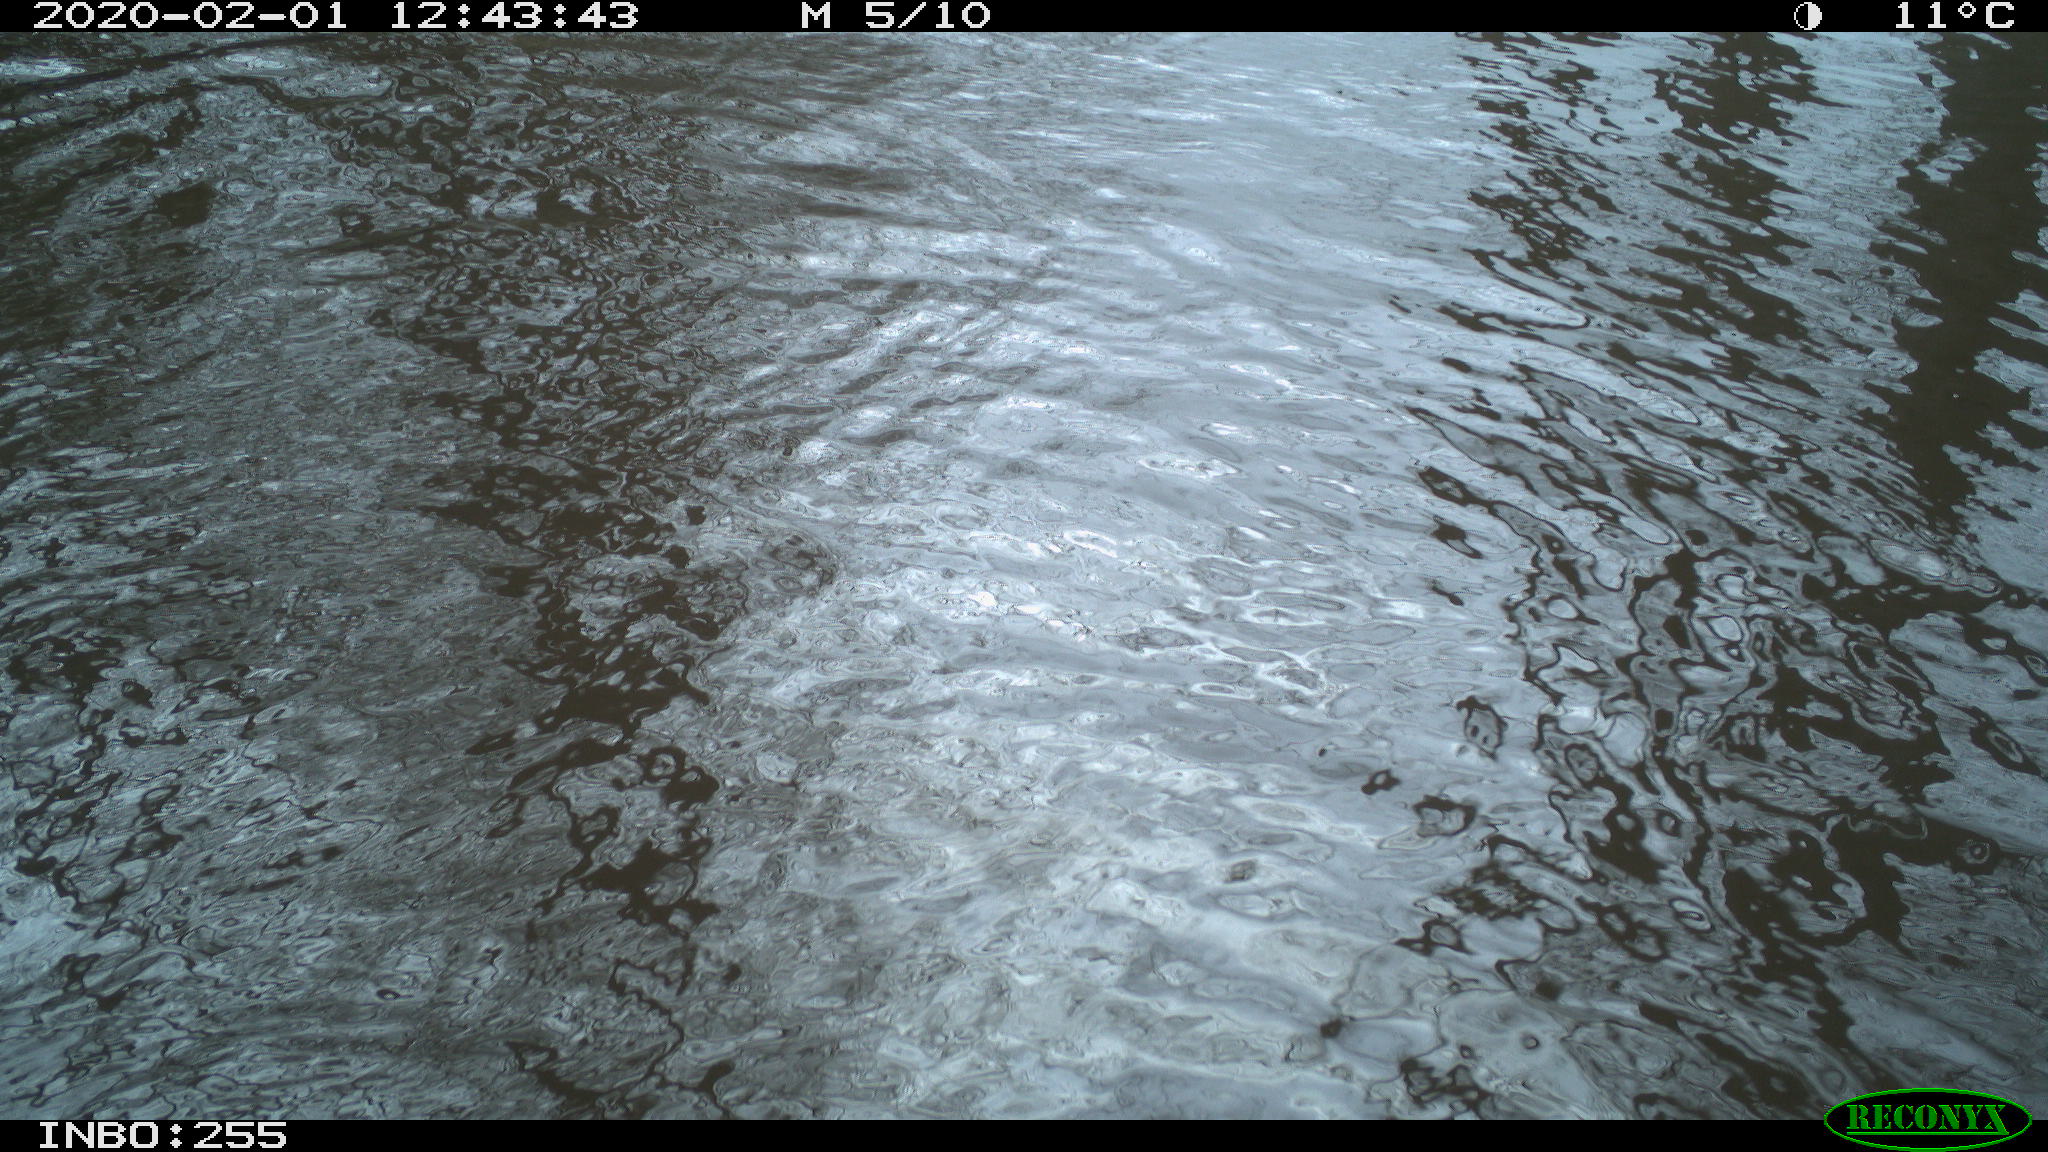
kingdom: Animalia
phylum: Chordata
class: Aves
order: Gruiformes
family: Rallidae
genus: Gallinula
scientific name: Gallinula chloropus
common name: Common moorhen
